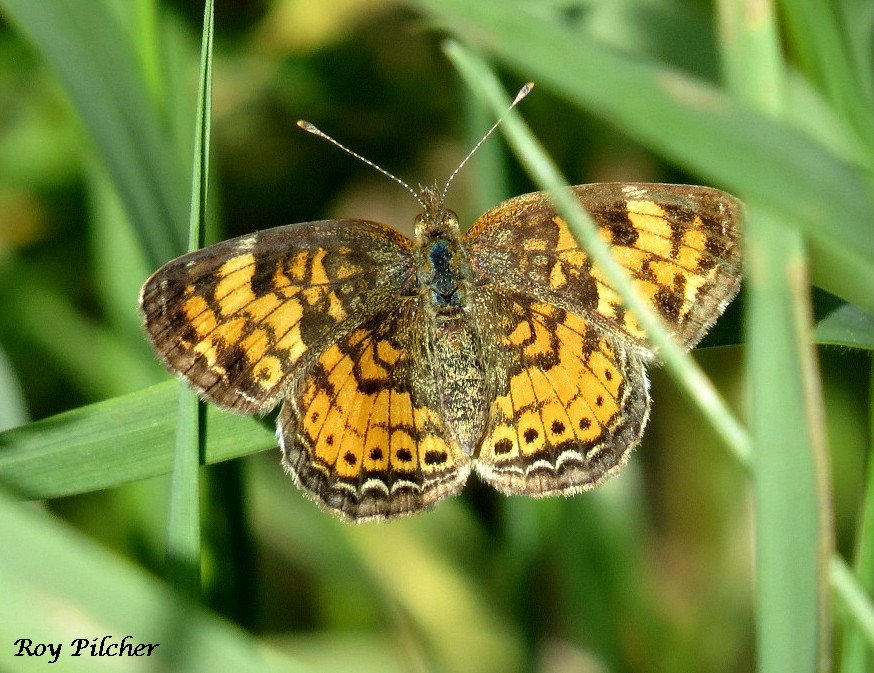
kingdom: Animalia
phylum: Arthropoda
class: Insecta
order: Lepidoptera
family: Nymphalidae
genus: Phyciodes
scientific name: Phyciodes tharos
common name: Pearl Crescent
